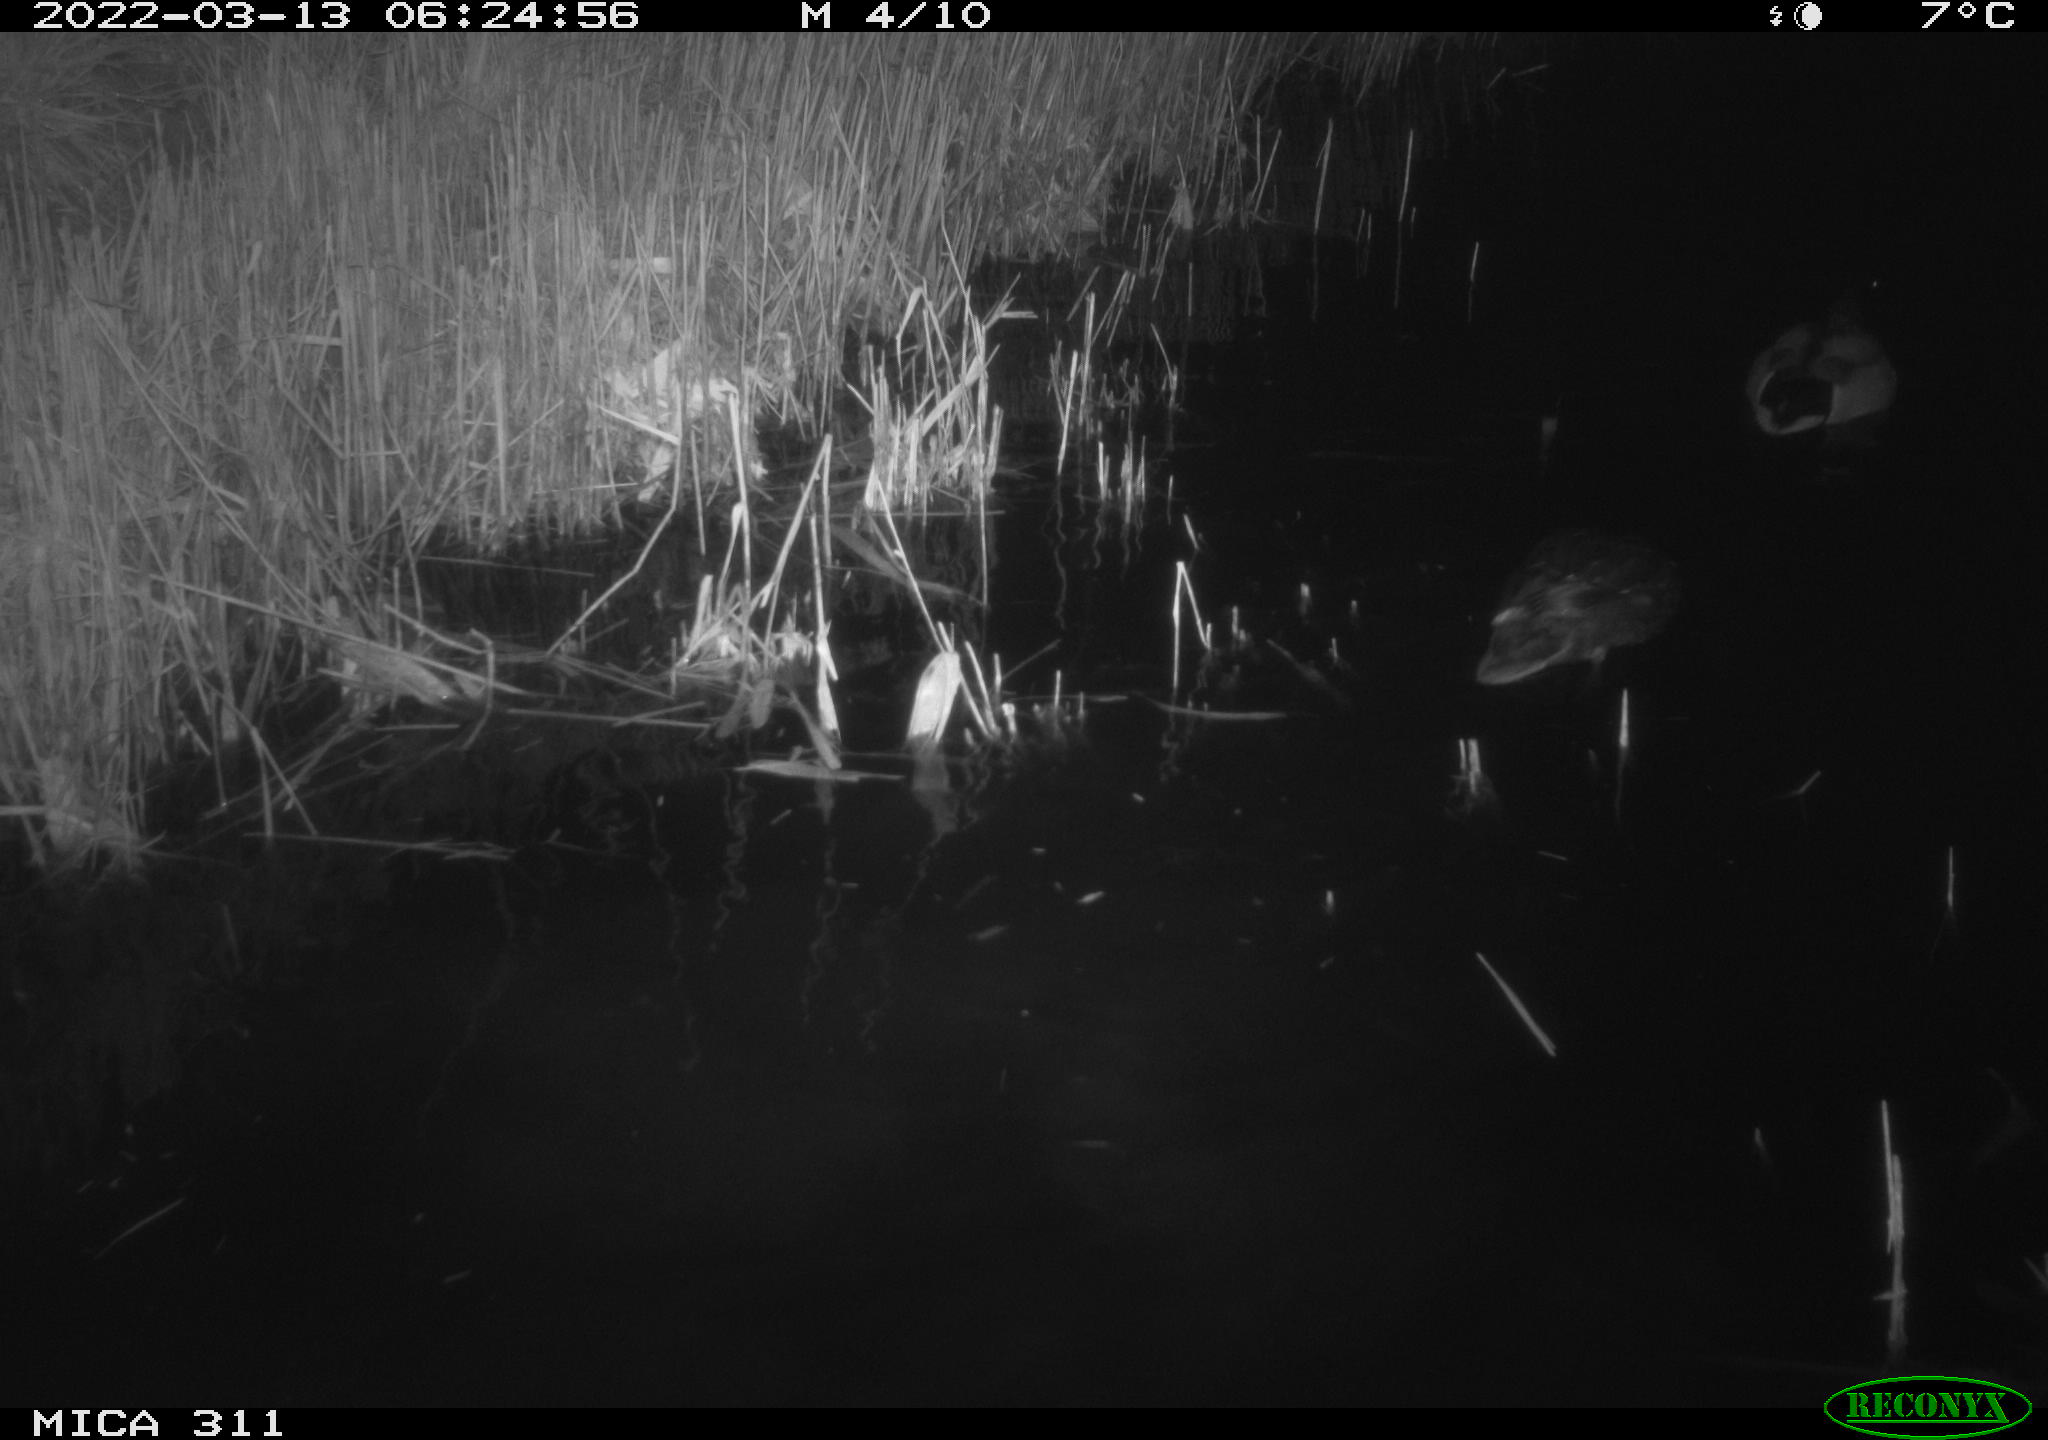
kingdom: Animalia
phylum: Chordata
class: Aves
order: Anseriformes
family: Anatidae
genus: Anas
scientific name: Anas platyrhynchos
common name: Mallard
